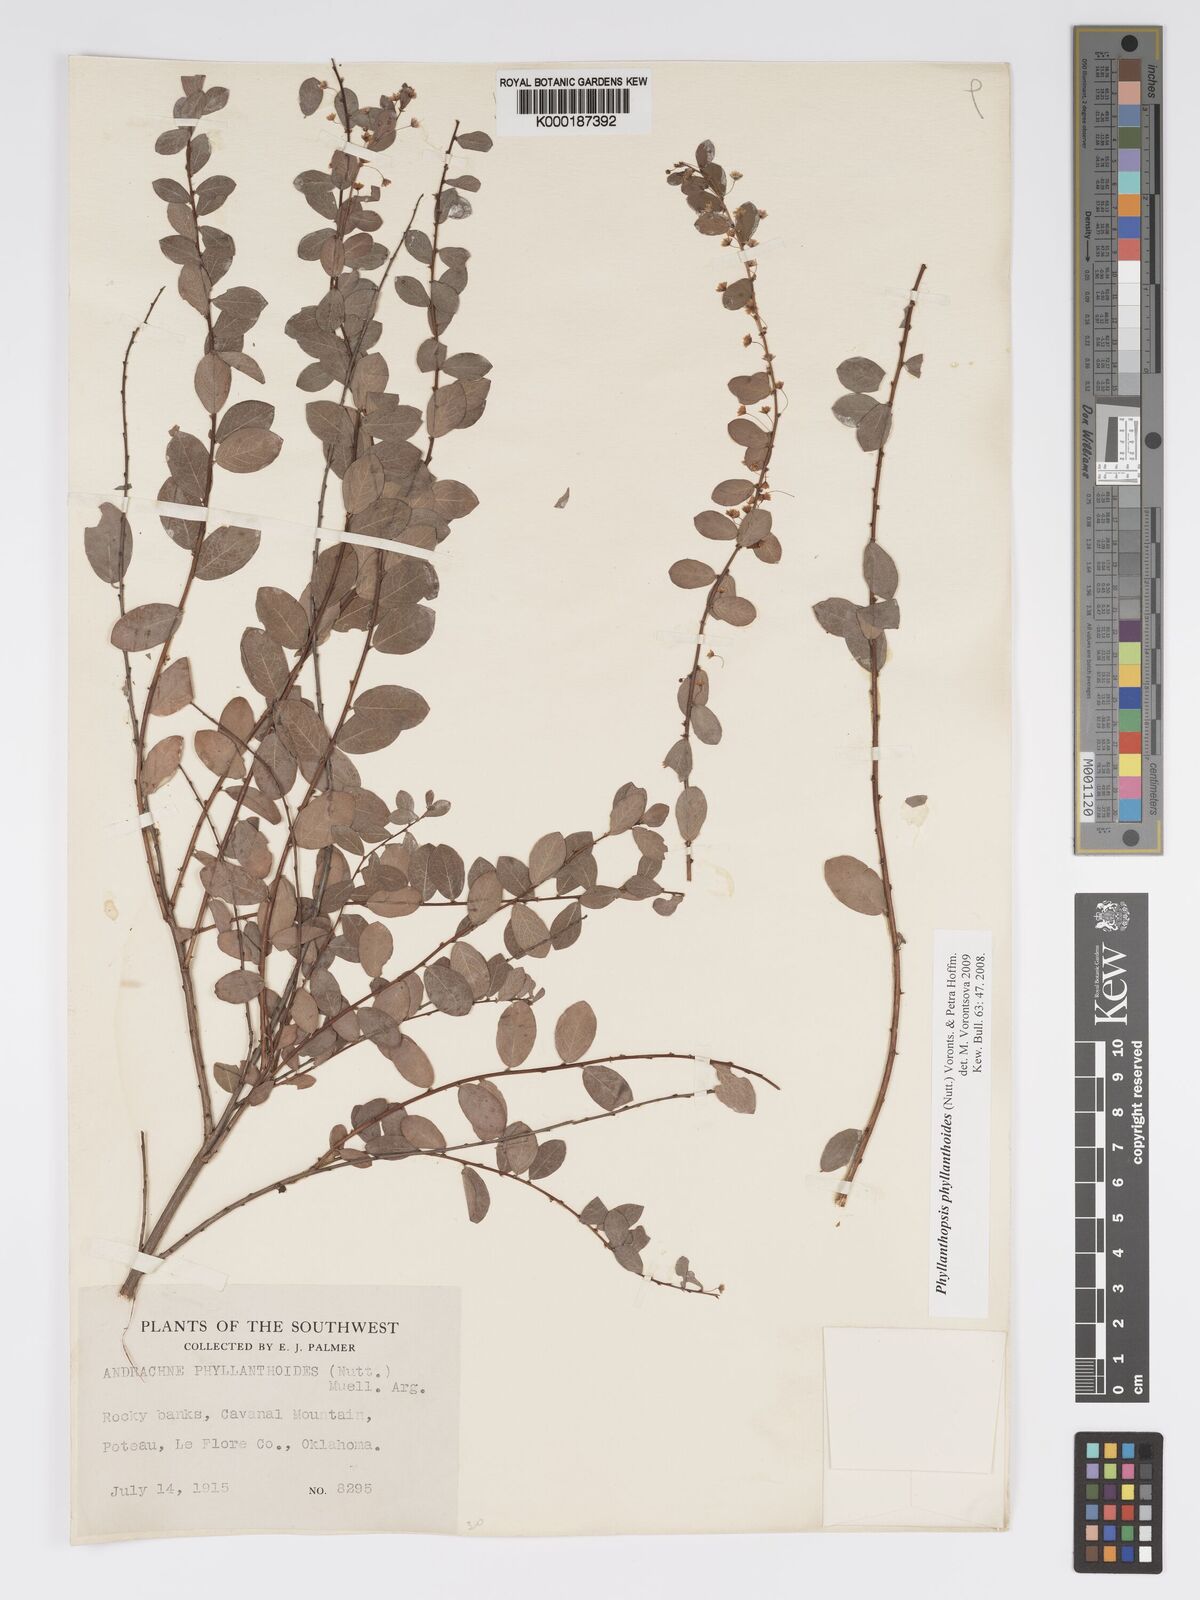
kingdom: Plantae
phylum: Tracheophyta
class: Magnoliopsida
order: Malpighiales
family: Phyllanthaceae
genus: Andrachne
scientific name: Andrachne
